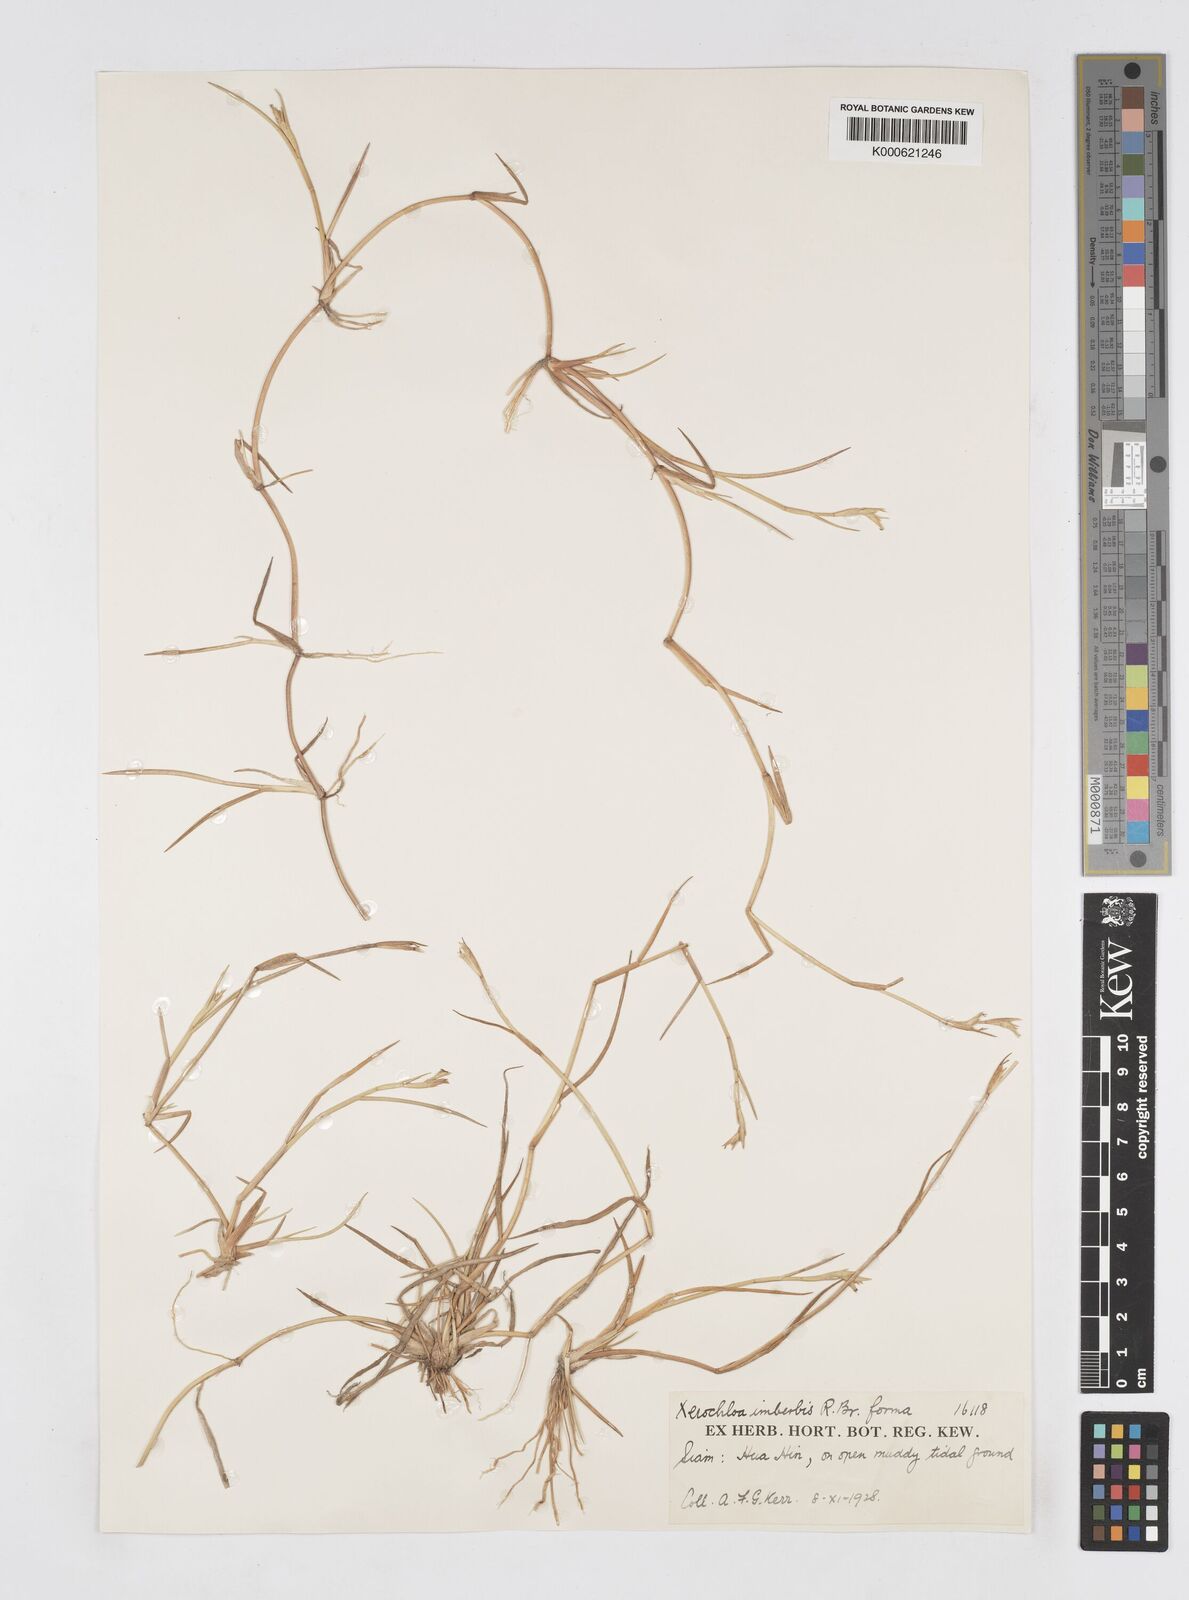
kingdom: Plantae
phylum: Tracheophyta
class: Liliopsida
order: Poales
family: Poaceae
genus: Xerochloa
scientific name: Xerochloa imberbis
